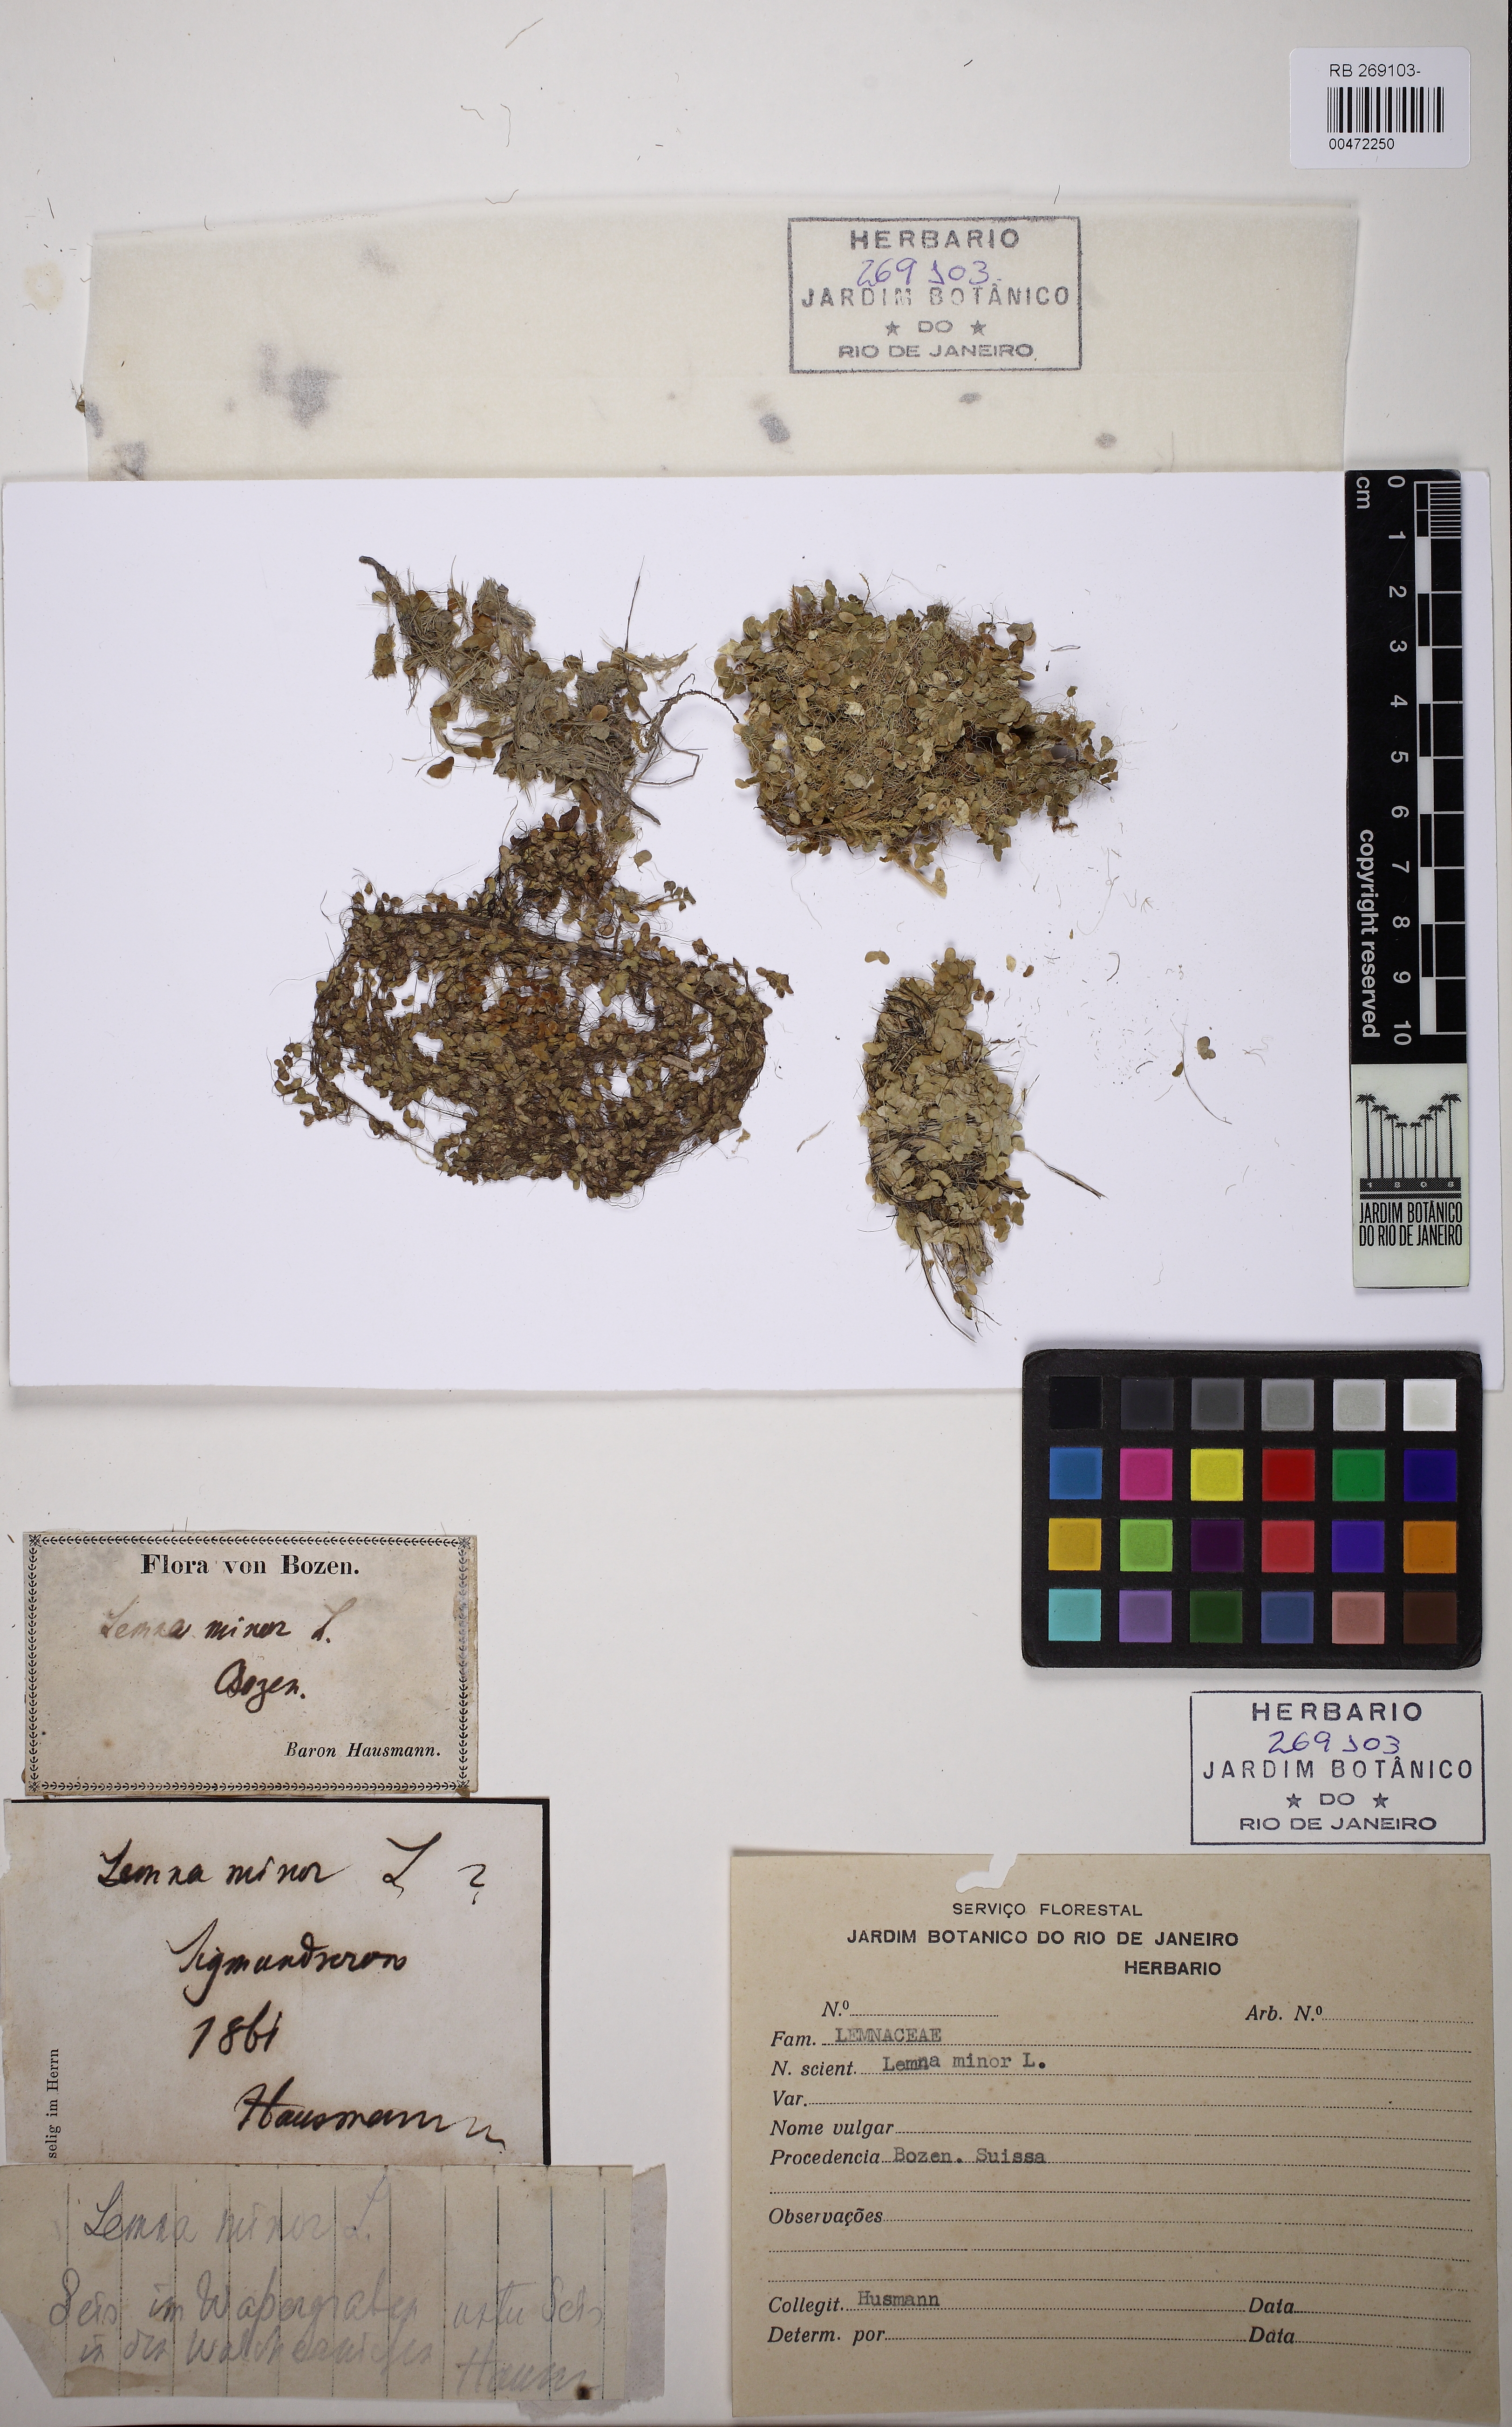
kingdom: Plantae
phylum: Tracheophyta
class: Liliopsida
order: Alismatales
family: Araceae
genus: Lemna
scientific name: Lemna minor
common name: Common duckweed
